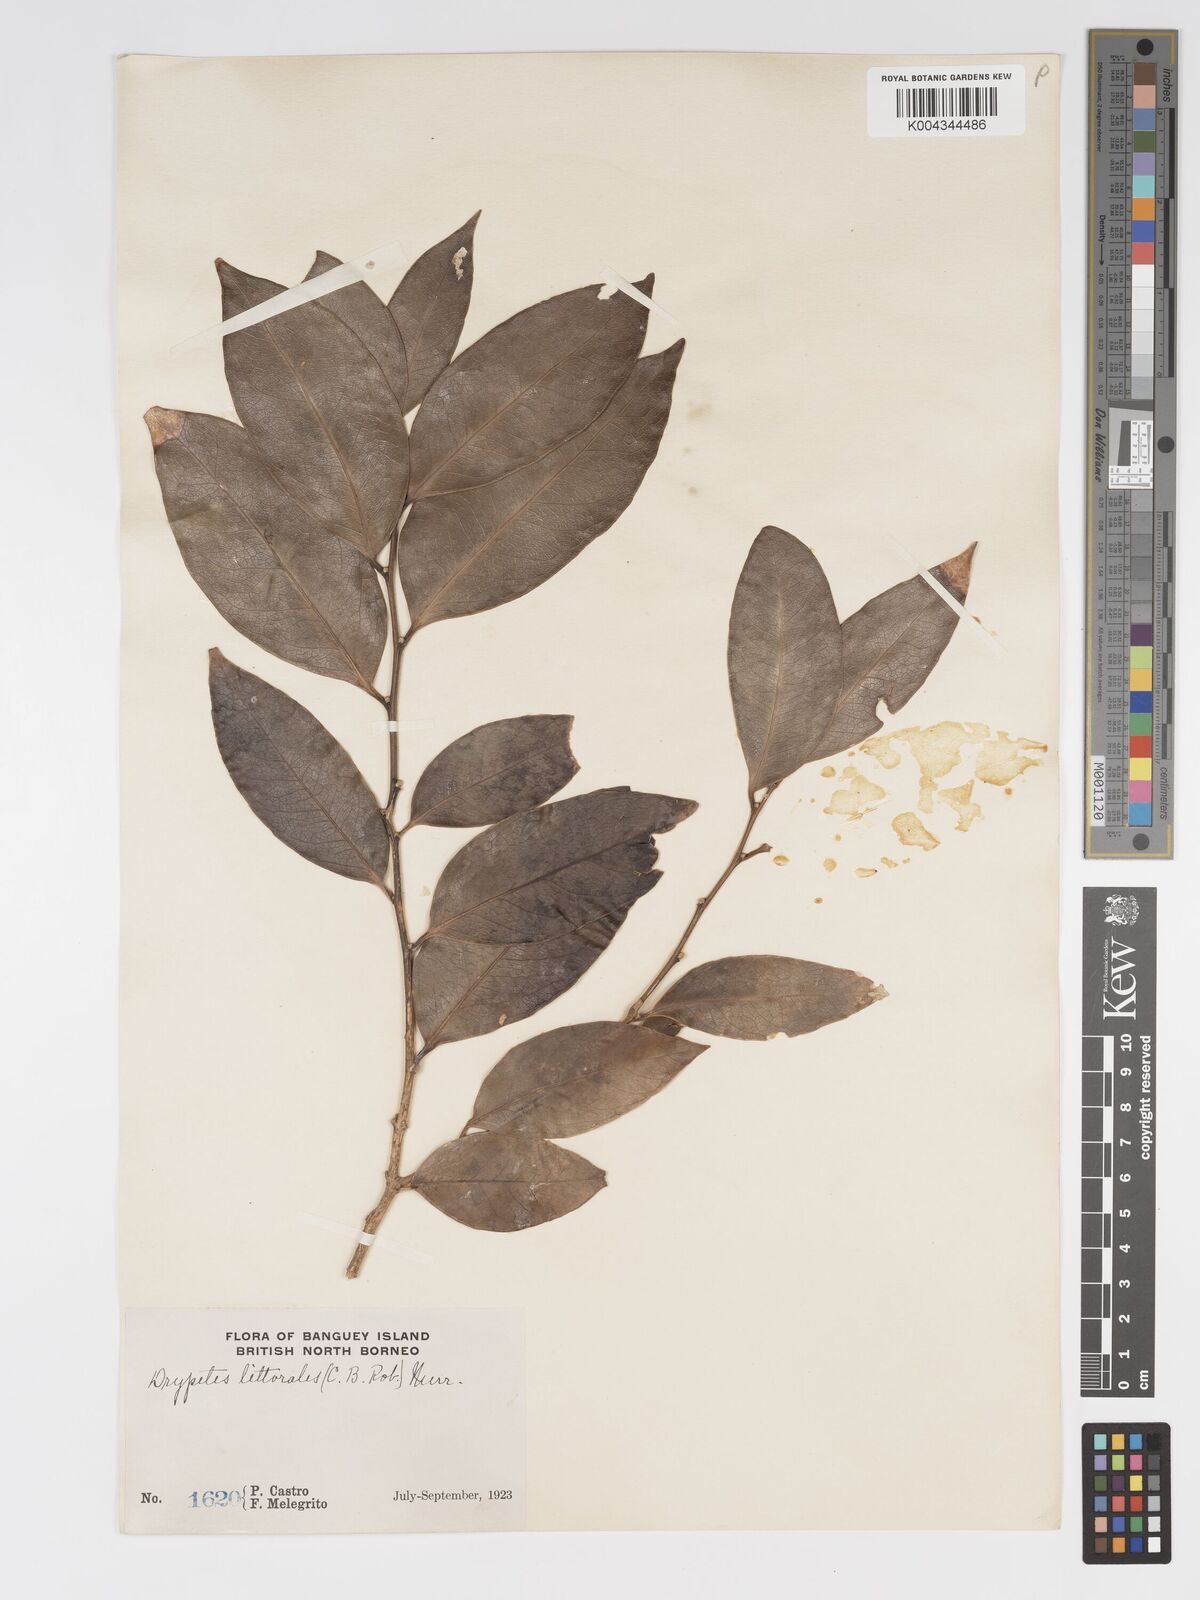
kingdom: Plantae
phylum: Tracheophyta
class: Magnoliopsida
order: Malpighiales
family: Putranjivaceae
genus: Drypetes
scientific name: Drypetes littoralis
